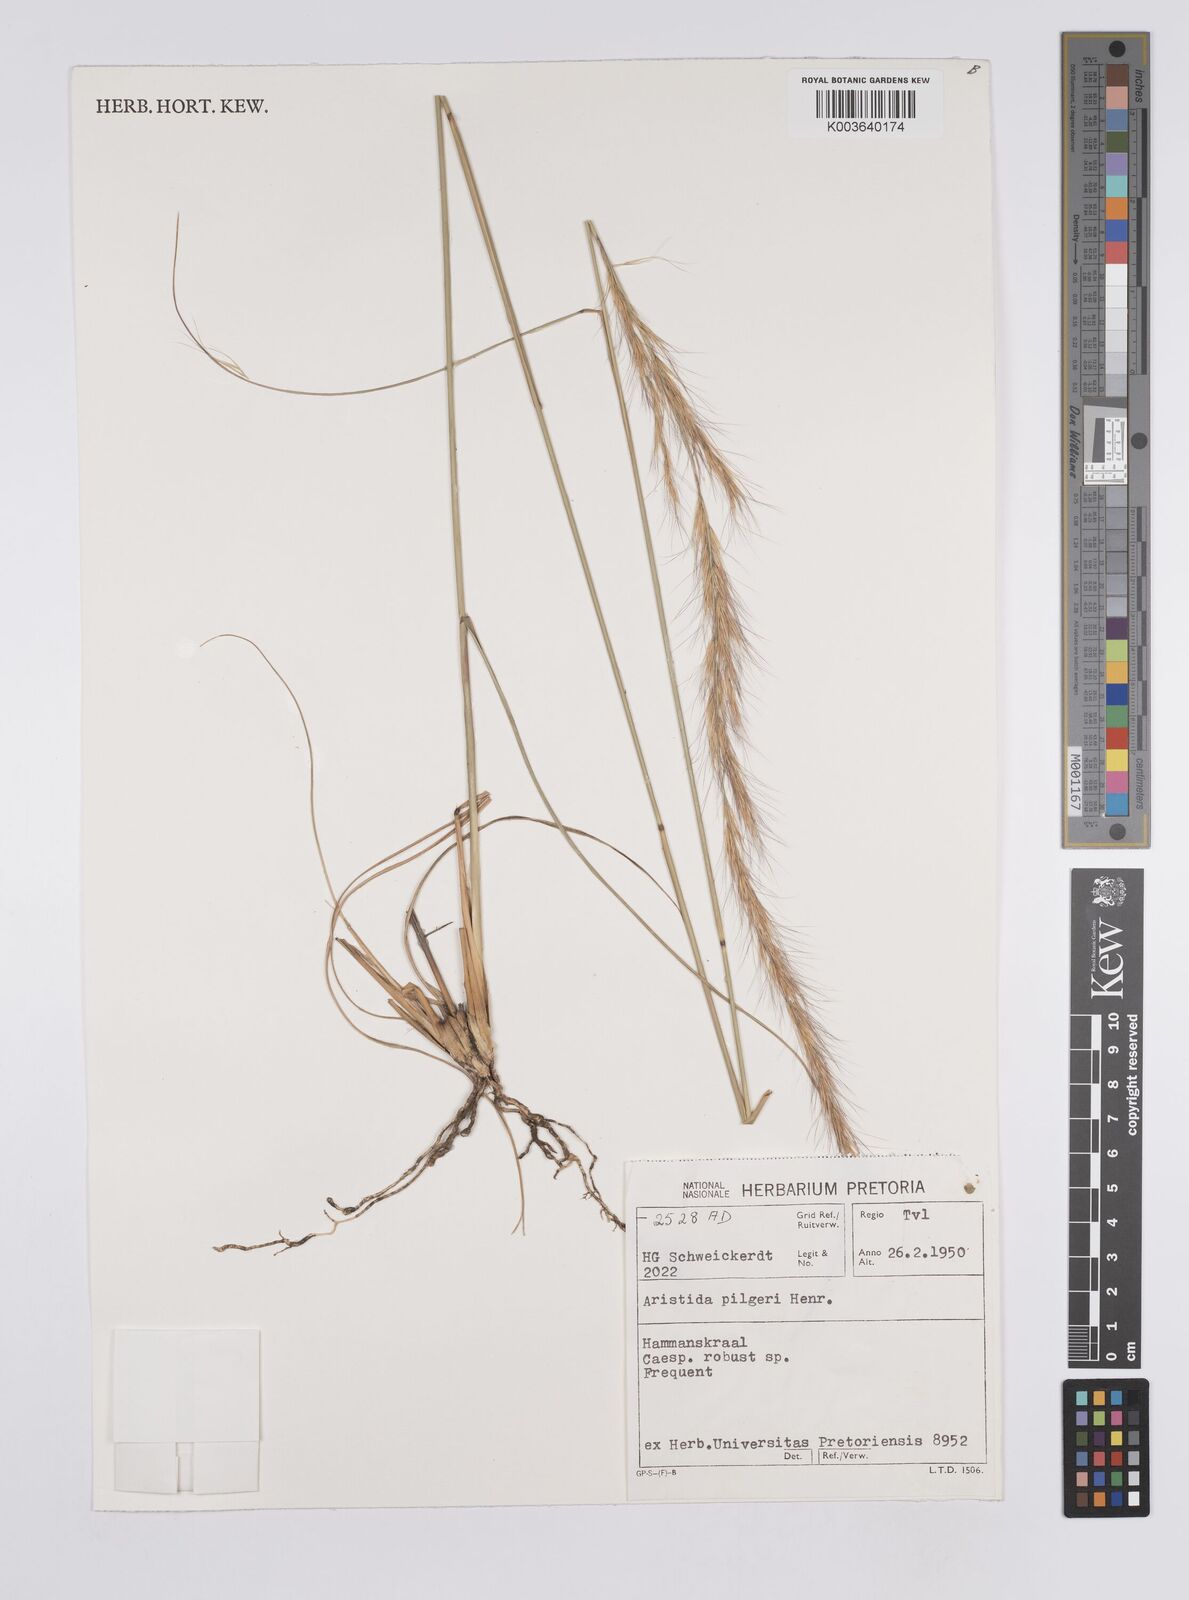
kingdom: Plantae
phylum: Tracheophyta
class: Liliopsida
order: Poales
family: Poaceae
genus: Aristida
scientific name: Aristida pilgeri
